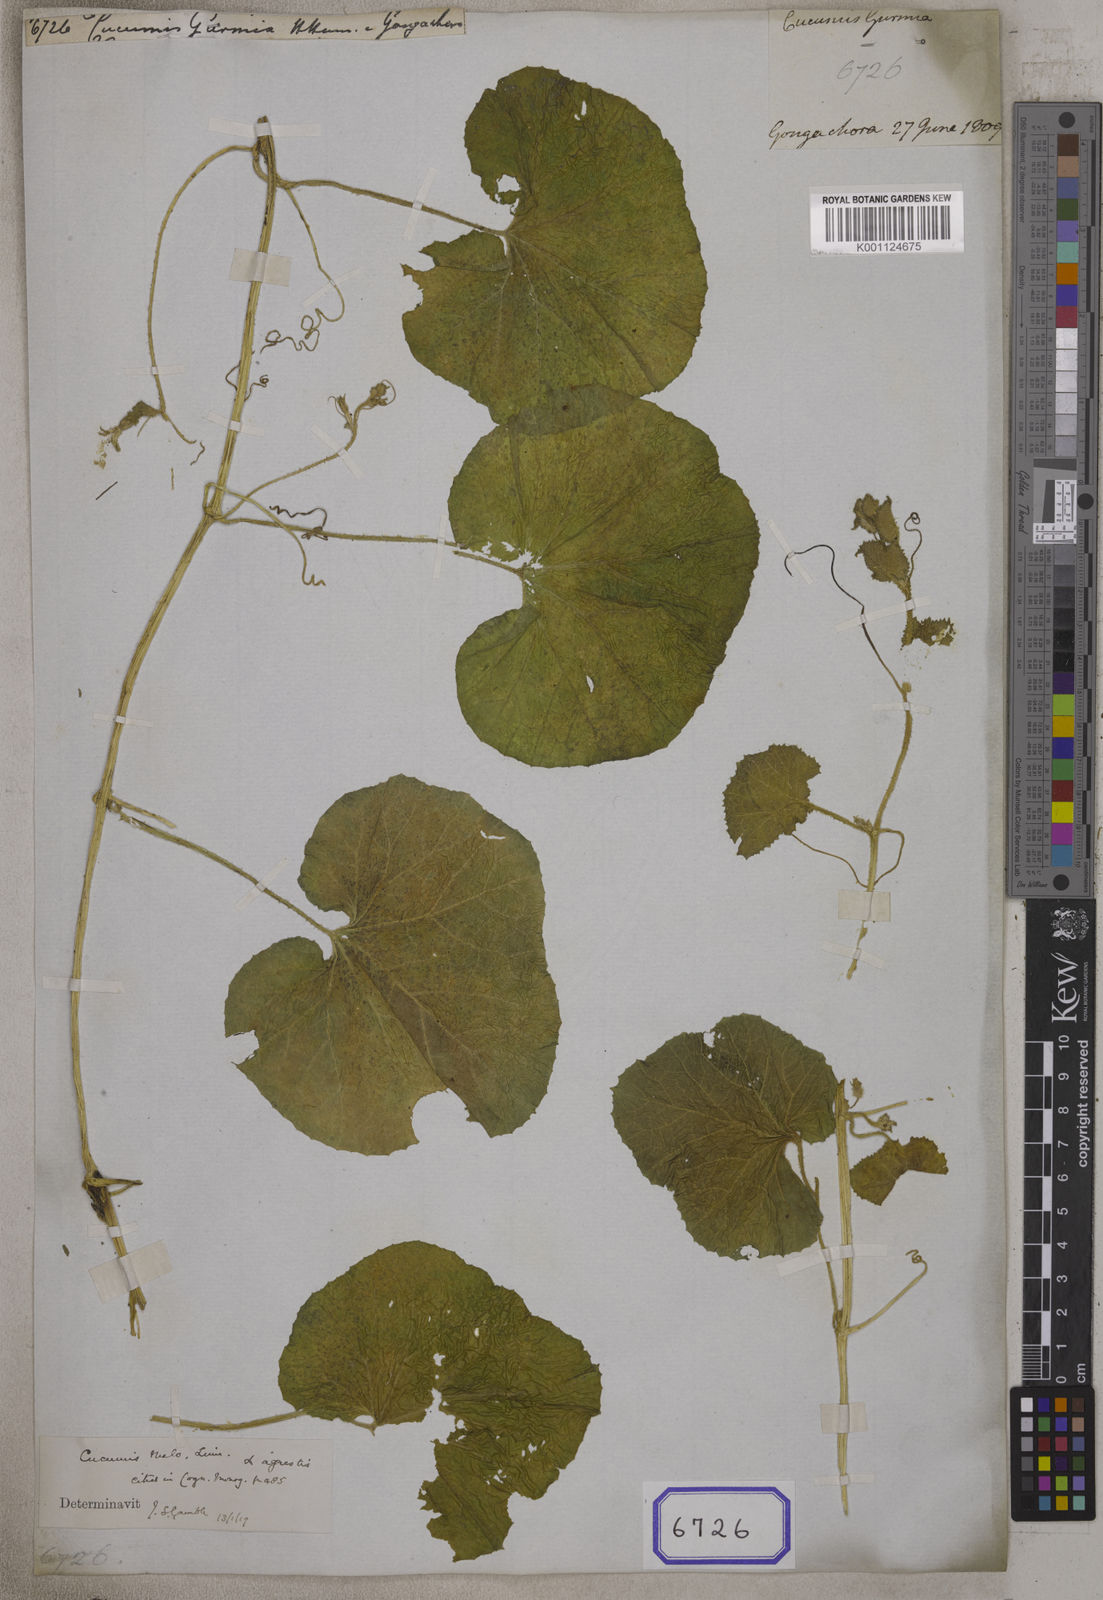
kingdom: Plantae
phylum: Tracheophyta
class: Magnoliopsida
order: Cucurbitales
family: Cucurbitaceae
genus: Cucumis
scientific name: Cucumis
